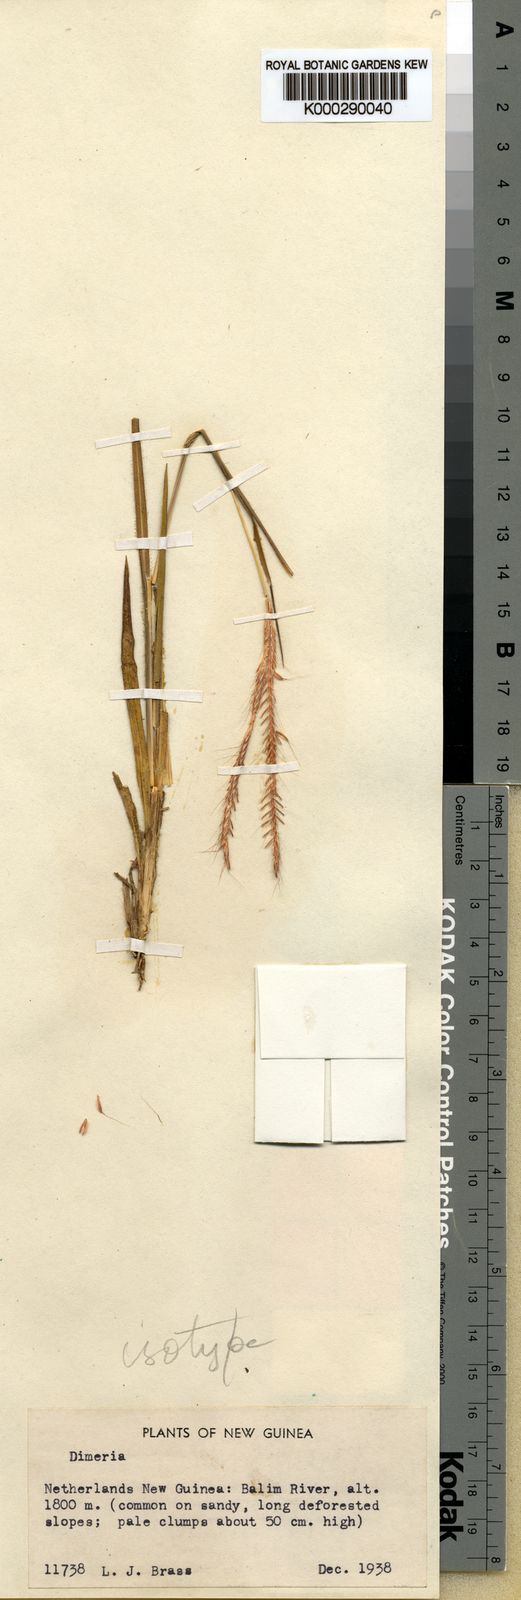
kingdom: Plantae
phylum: Tracheophyta
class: Liliopsida
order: Poales
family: Poaceae
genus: Dimeria
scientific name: Dimeria
